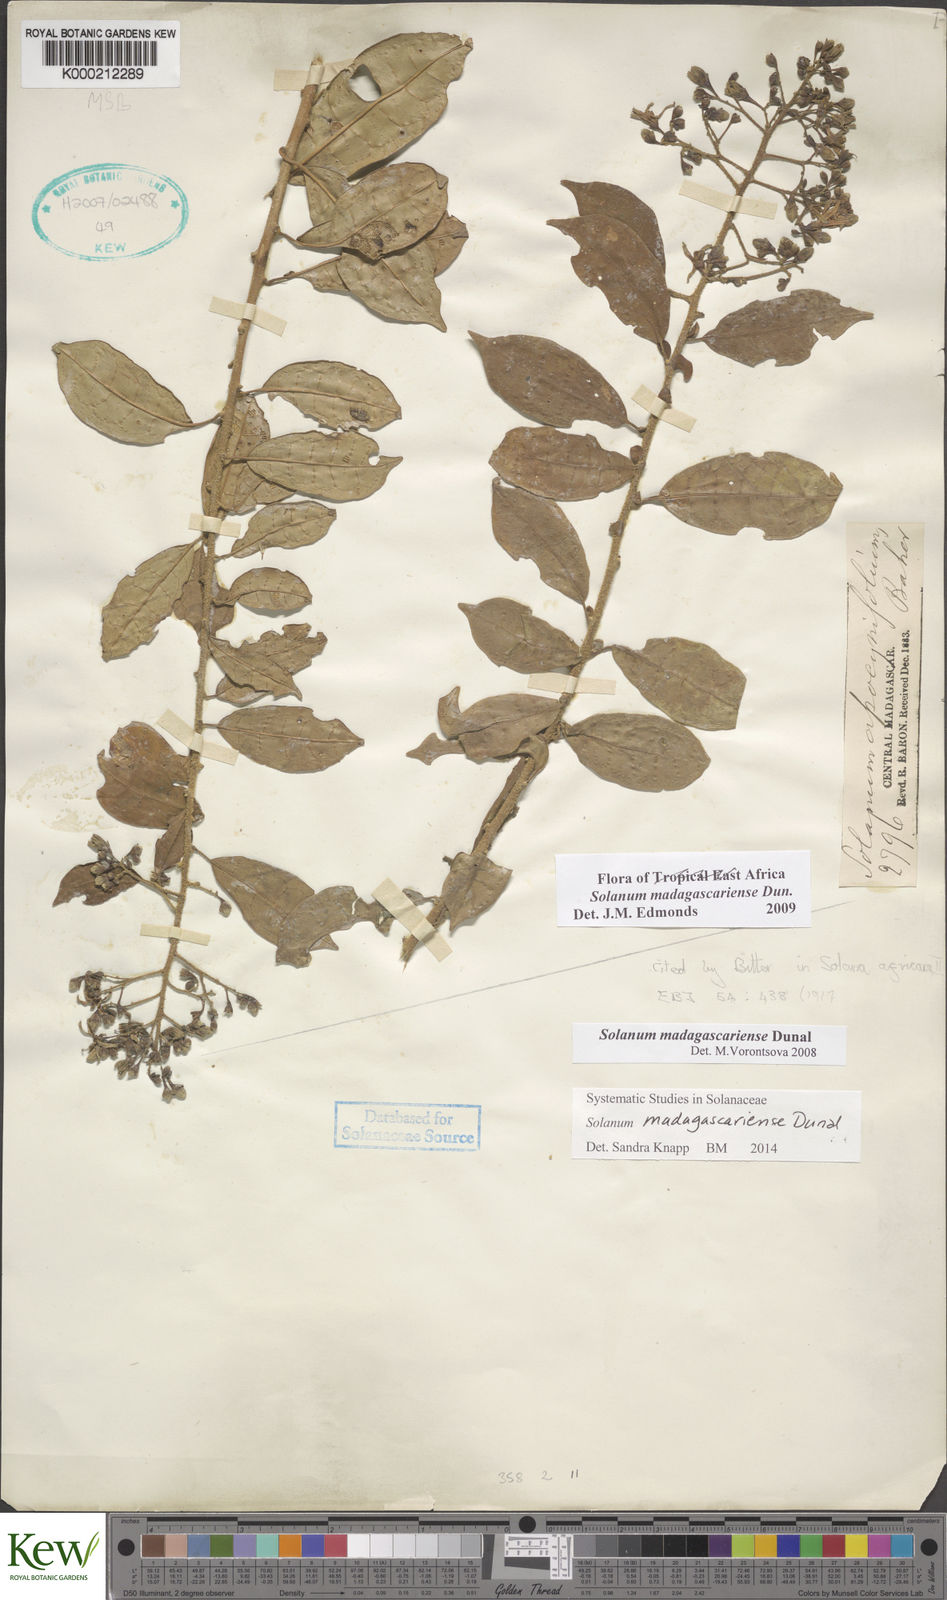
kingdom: Plantae
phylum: Tracheophyta
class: Magnoliopsida
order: Solanales
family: Solanaceae
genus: Solanum
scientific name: Solanum madagascariense
